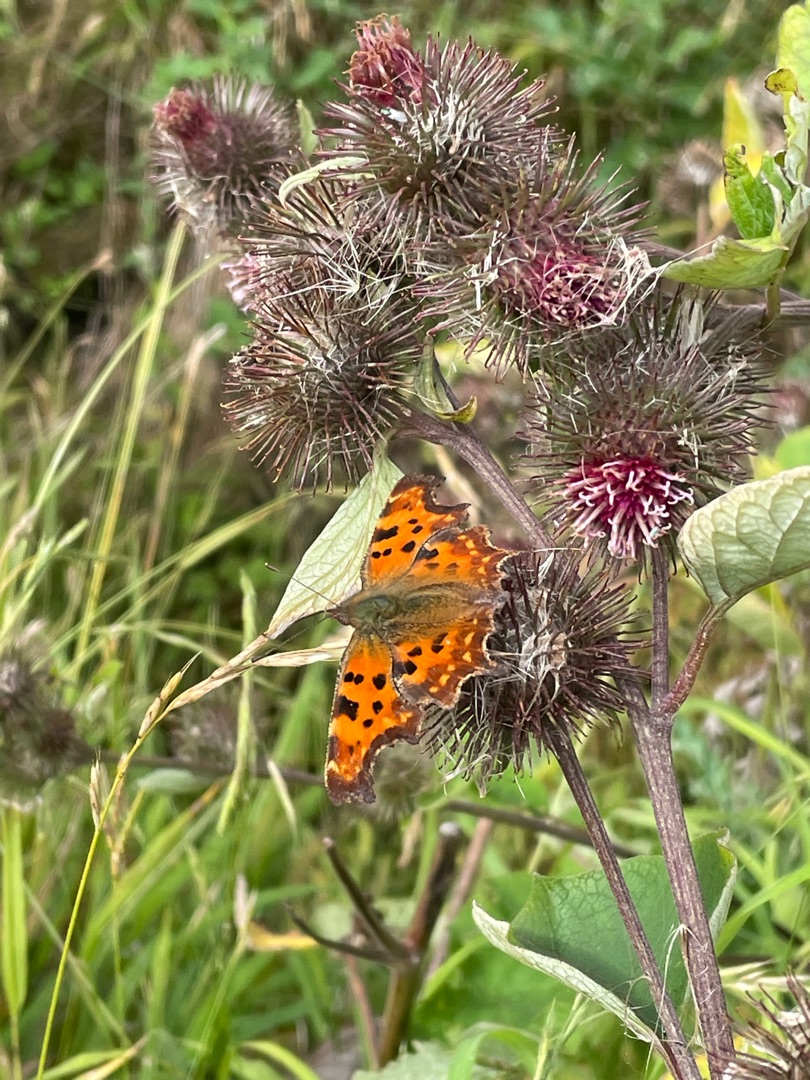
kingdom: Animalia
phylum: Arthropoda
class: Insecta
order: Lepidoptera
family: Nymphalidae
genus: Polygonia
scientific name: Polygonia c-album
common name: Det hvide C
